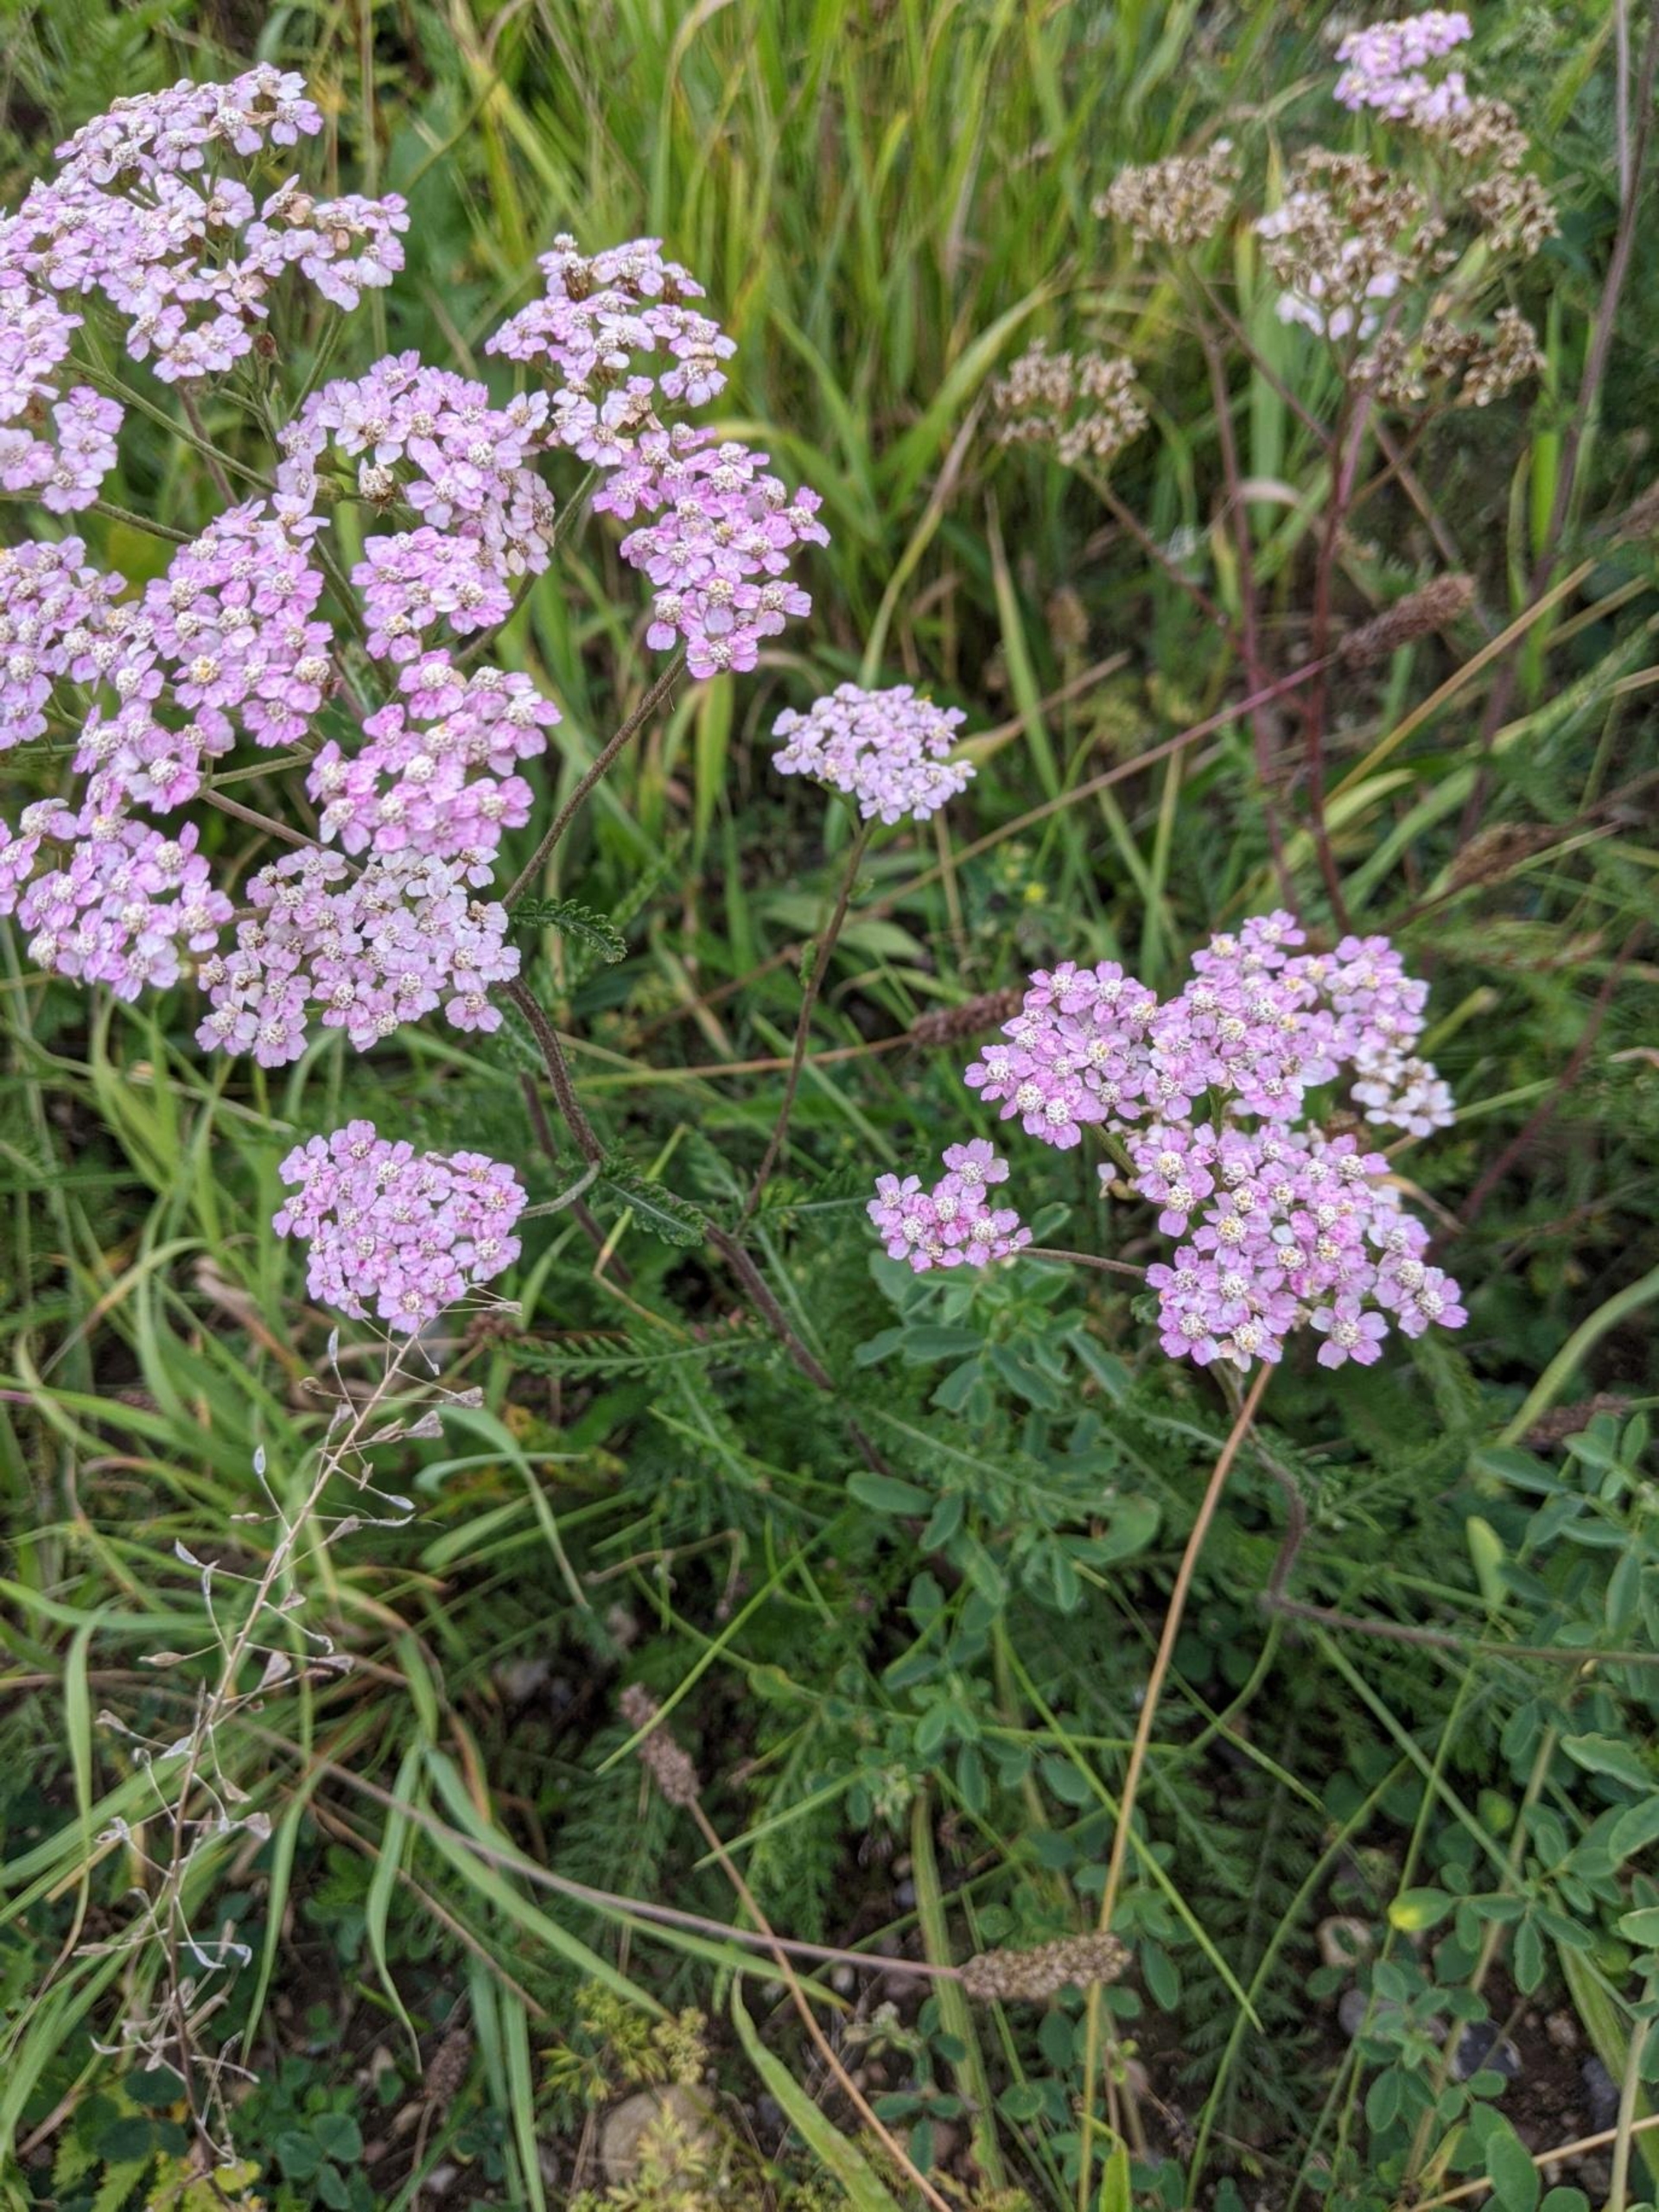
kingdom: Plantae
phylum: Tracheophyta
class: Magnoliopsida
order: Asterales
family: Asteraceae
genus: Achillea
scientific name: Achillea millefolium
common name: Almindelig røllike
